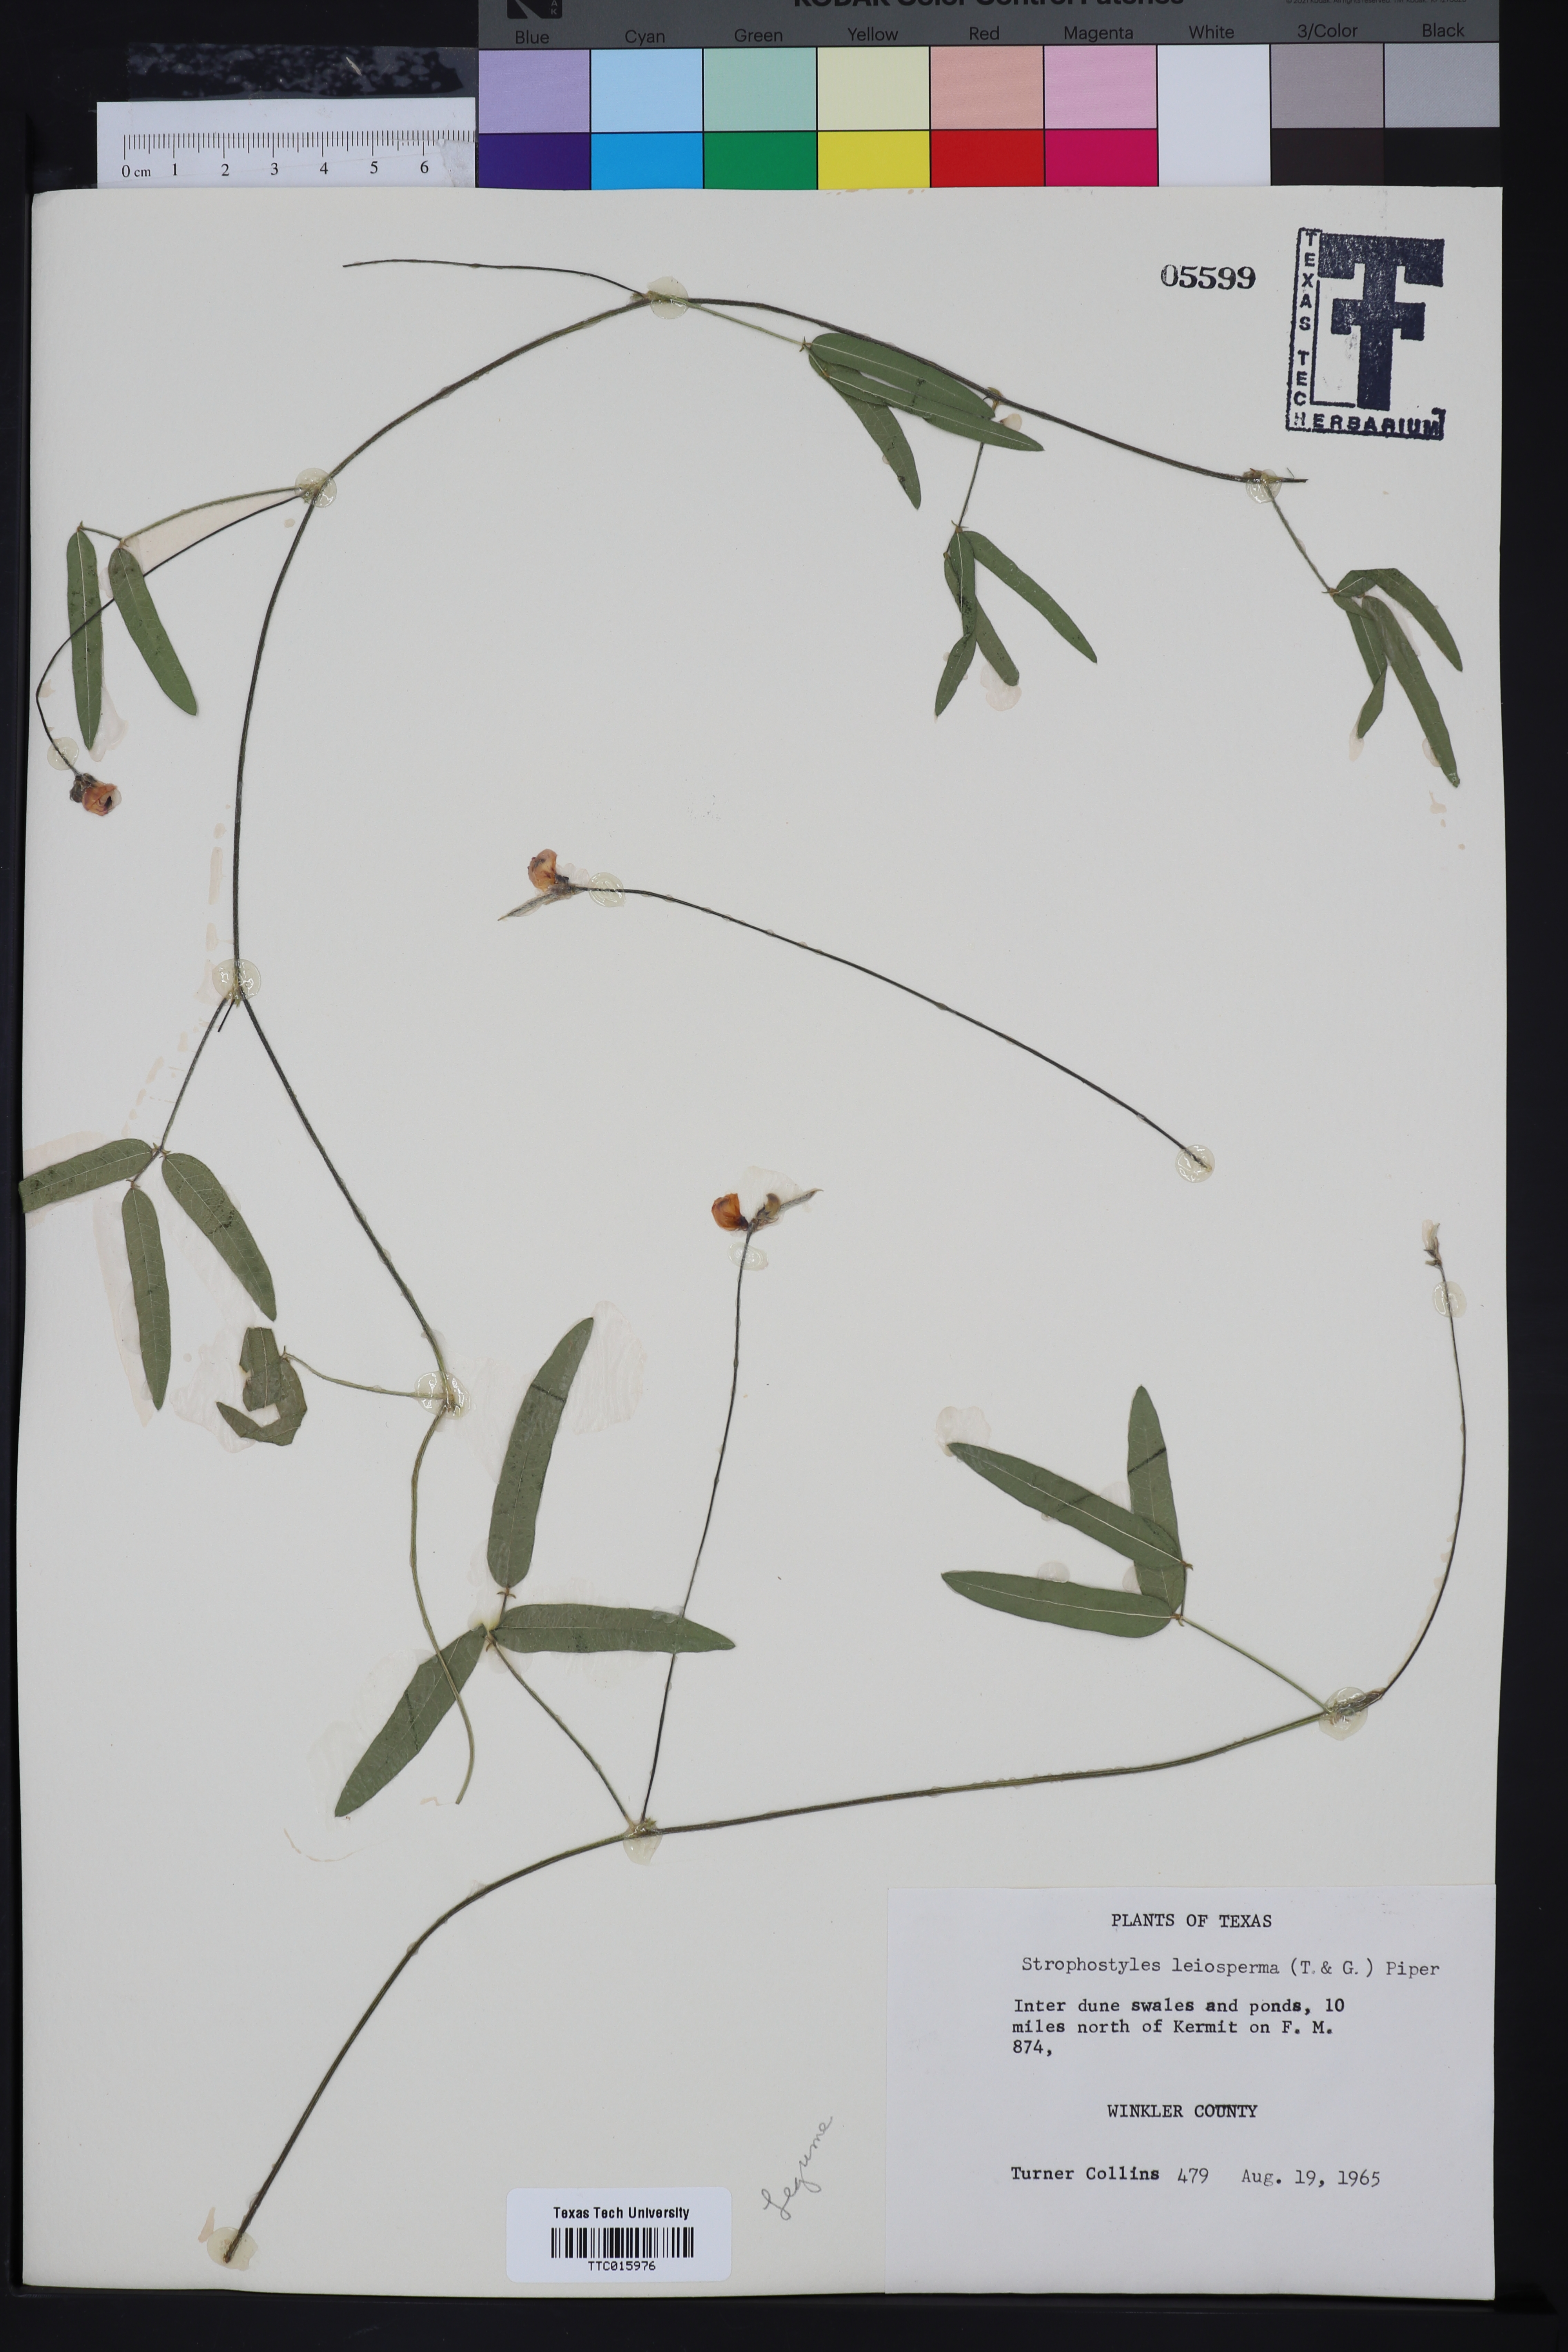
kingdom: Plantae
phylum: Tracheophyta
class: Magnoliopsida
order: Fabales
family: Fabaceae
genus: Strophostyles
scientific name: Strophostyles leiosperma
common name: Smooth-seed wild bean
